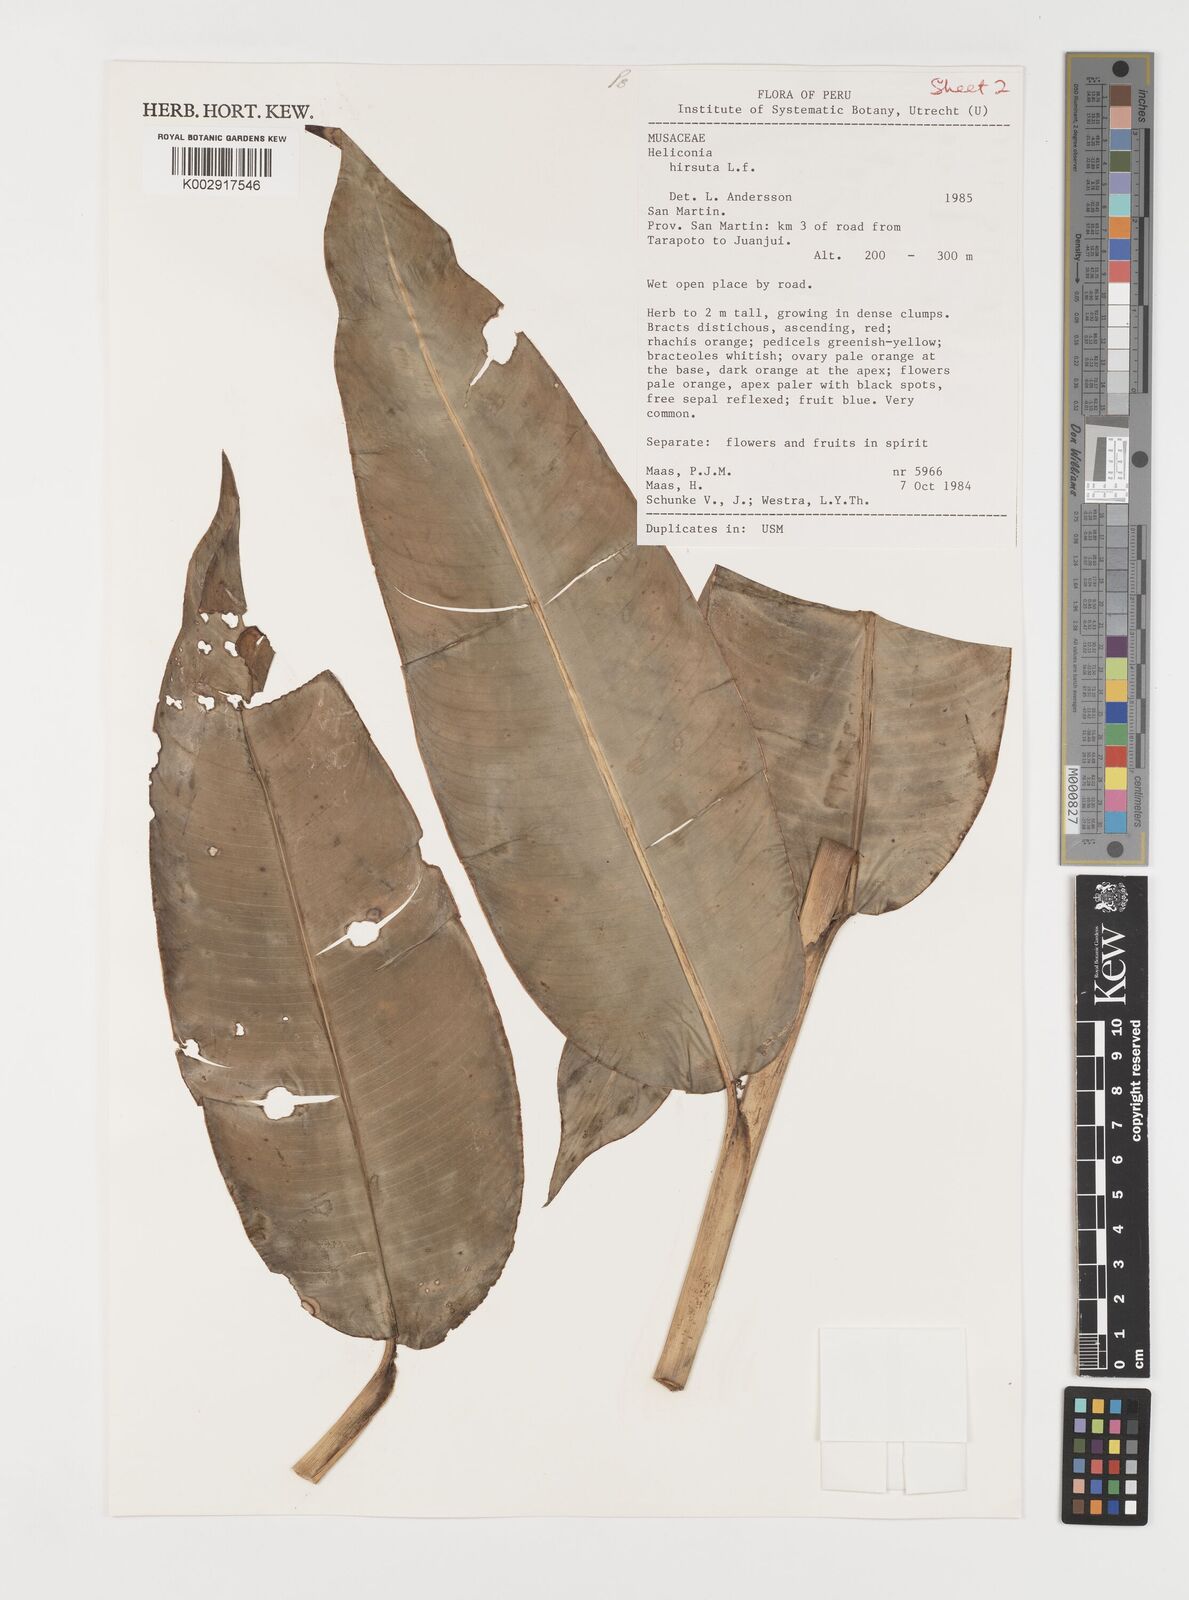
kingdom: Plantae
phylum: Tracheophyta
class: Liliopsida
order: Zingiberales
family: Heliconiaceae
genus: Heliconia
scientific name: Heliconia hirsuta
